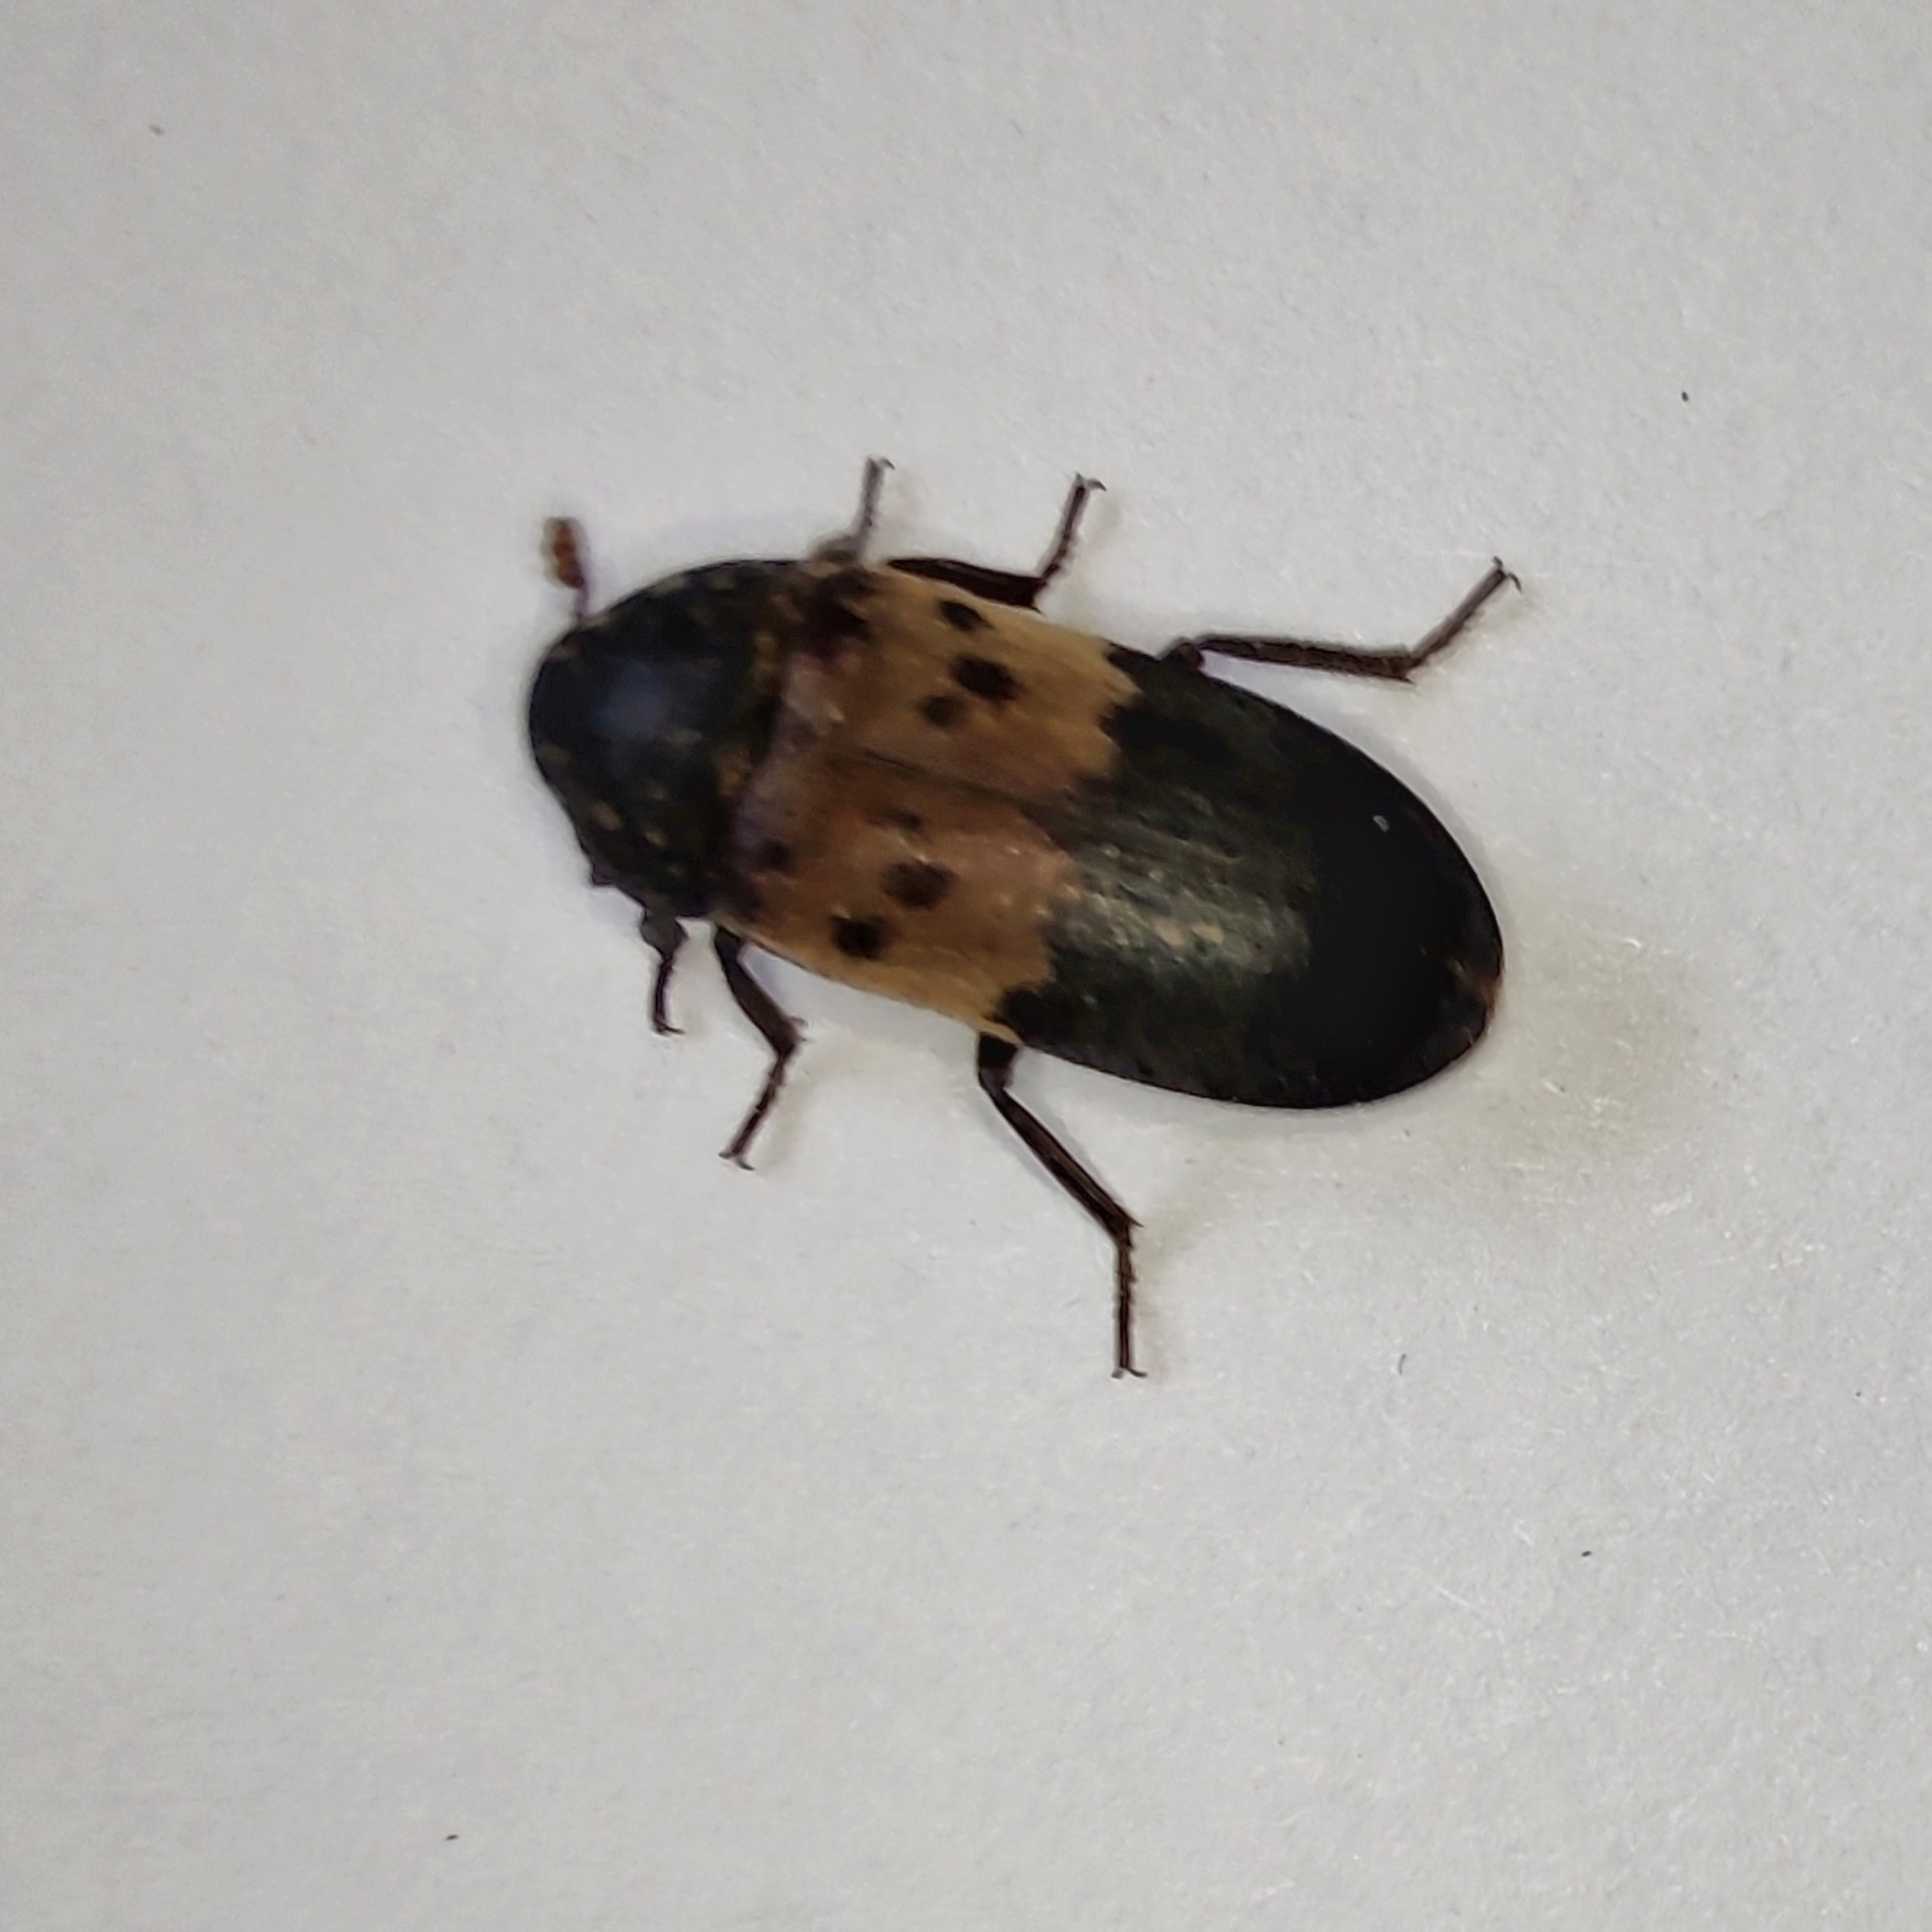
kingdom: Animalia
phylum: Arthropoda
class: Insecta
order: Coleoptera
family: Dermestidae
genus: Dermestes
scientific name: Dermestes lardarius
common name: Flæskeklanner
